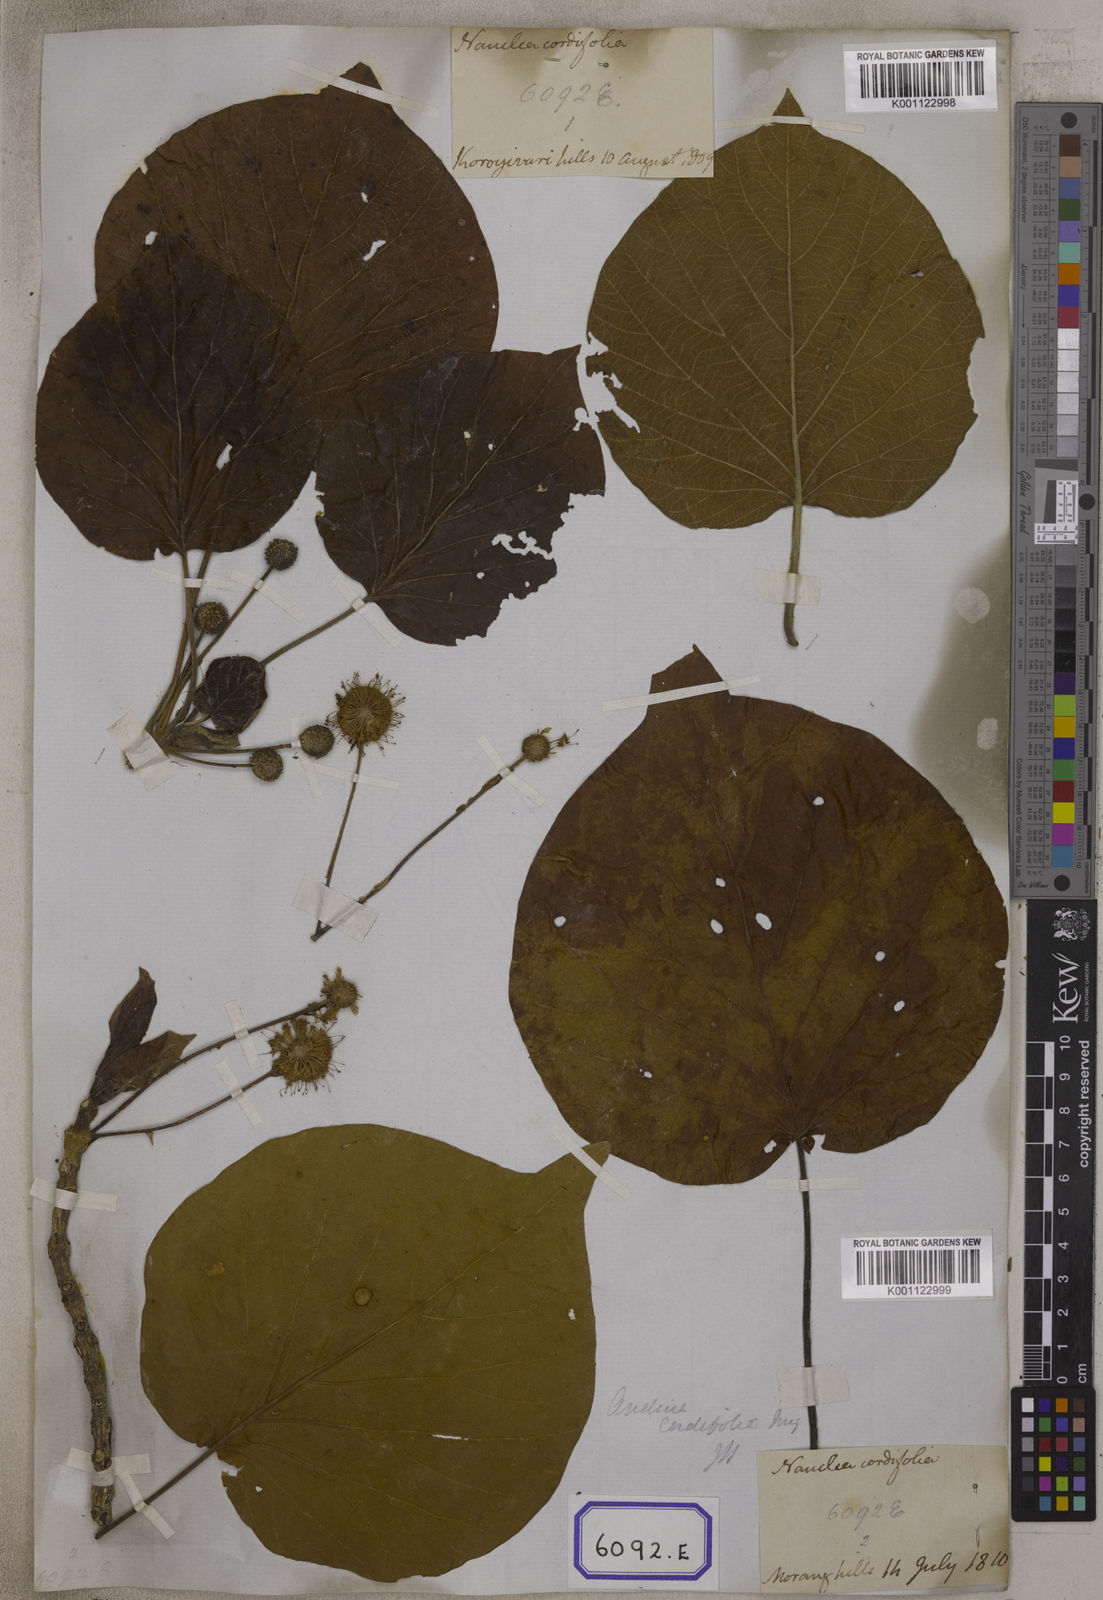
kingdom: Plantae
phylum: Tracheophyta
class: Magnoliopsida
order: Gentianales
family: Rubiaceae
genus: Adina
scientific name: Adina cordifolia
